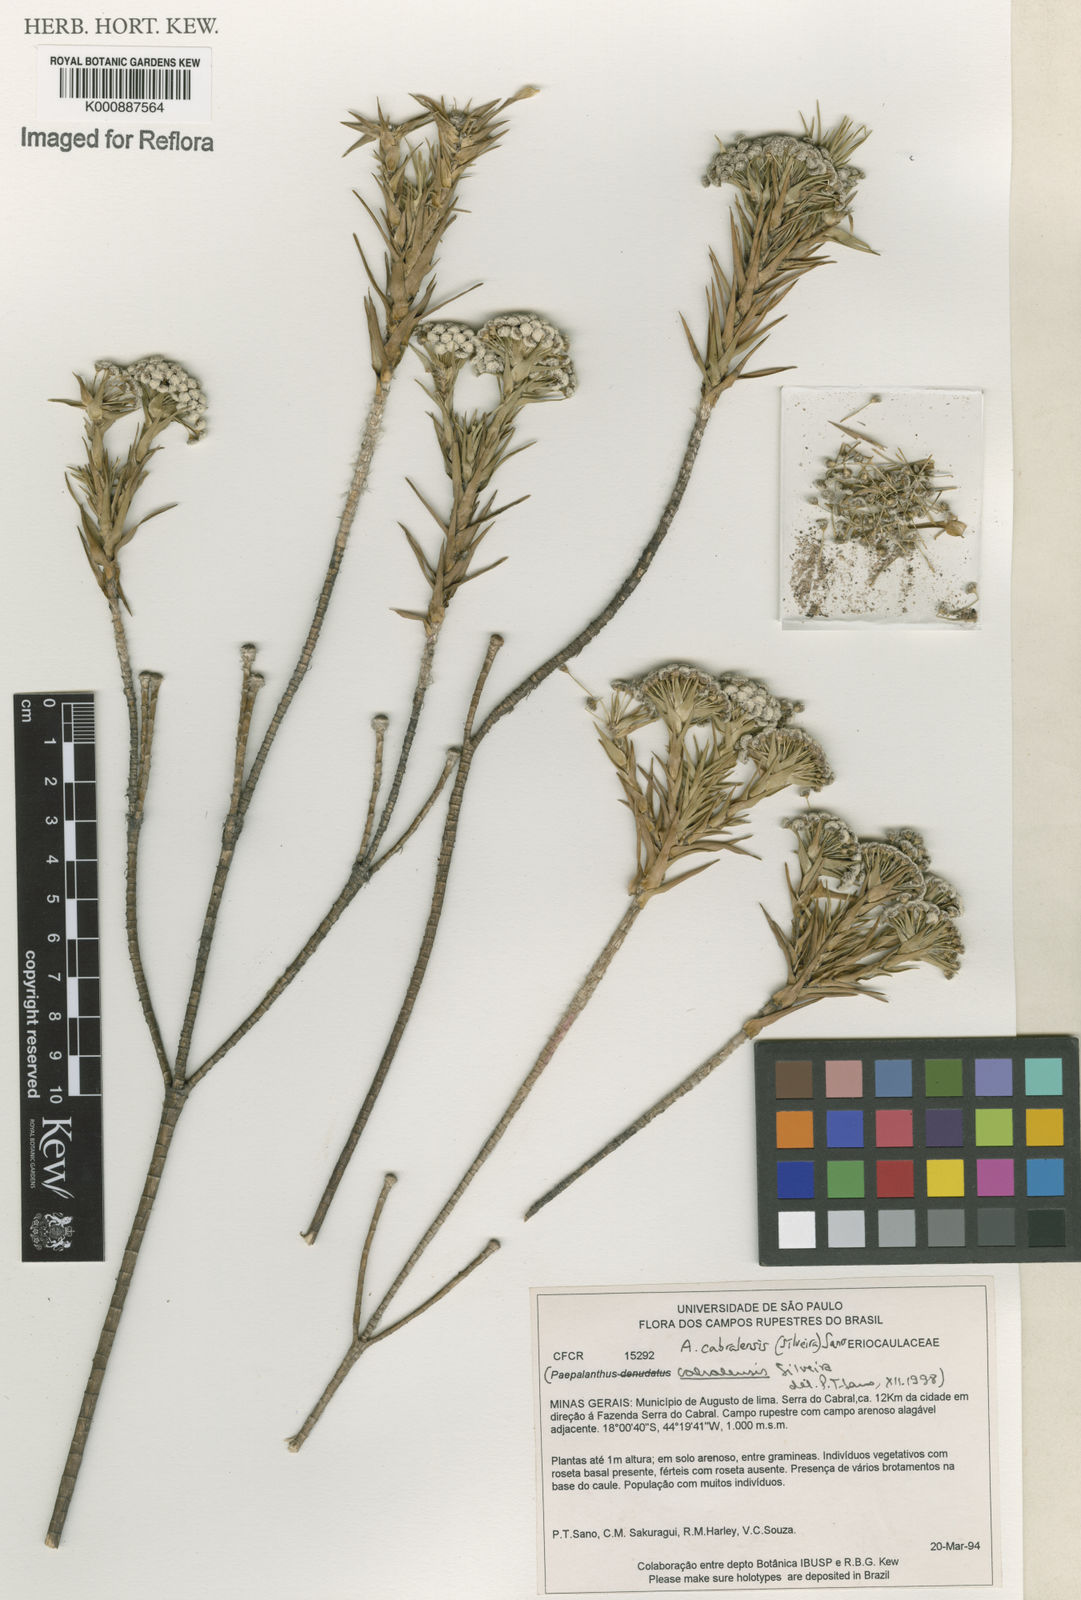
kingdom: Plantae
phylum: Tracheophyta
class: Liliopsida
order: Poales
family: Eriocaulaceae
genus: Paepalanthus
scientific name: Paepalanthus cabralensis
